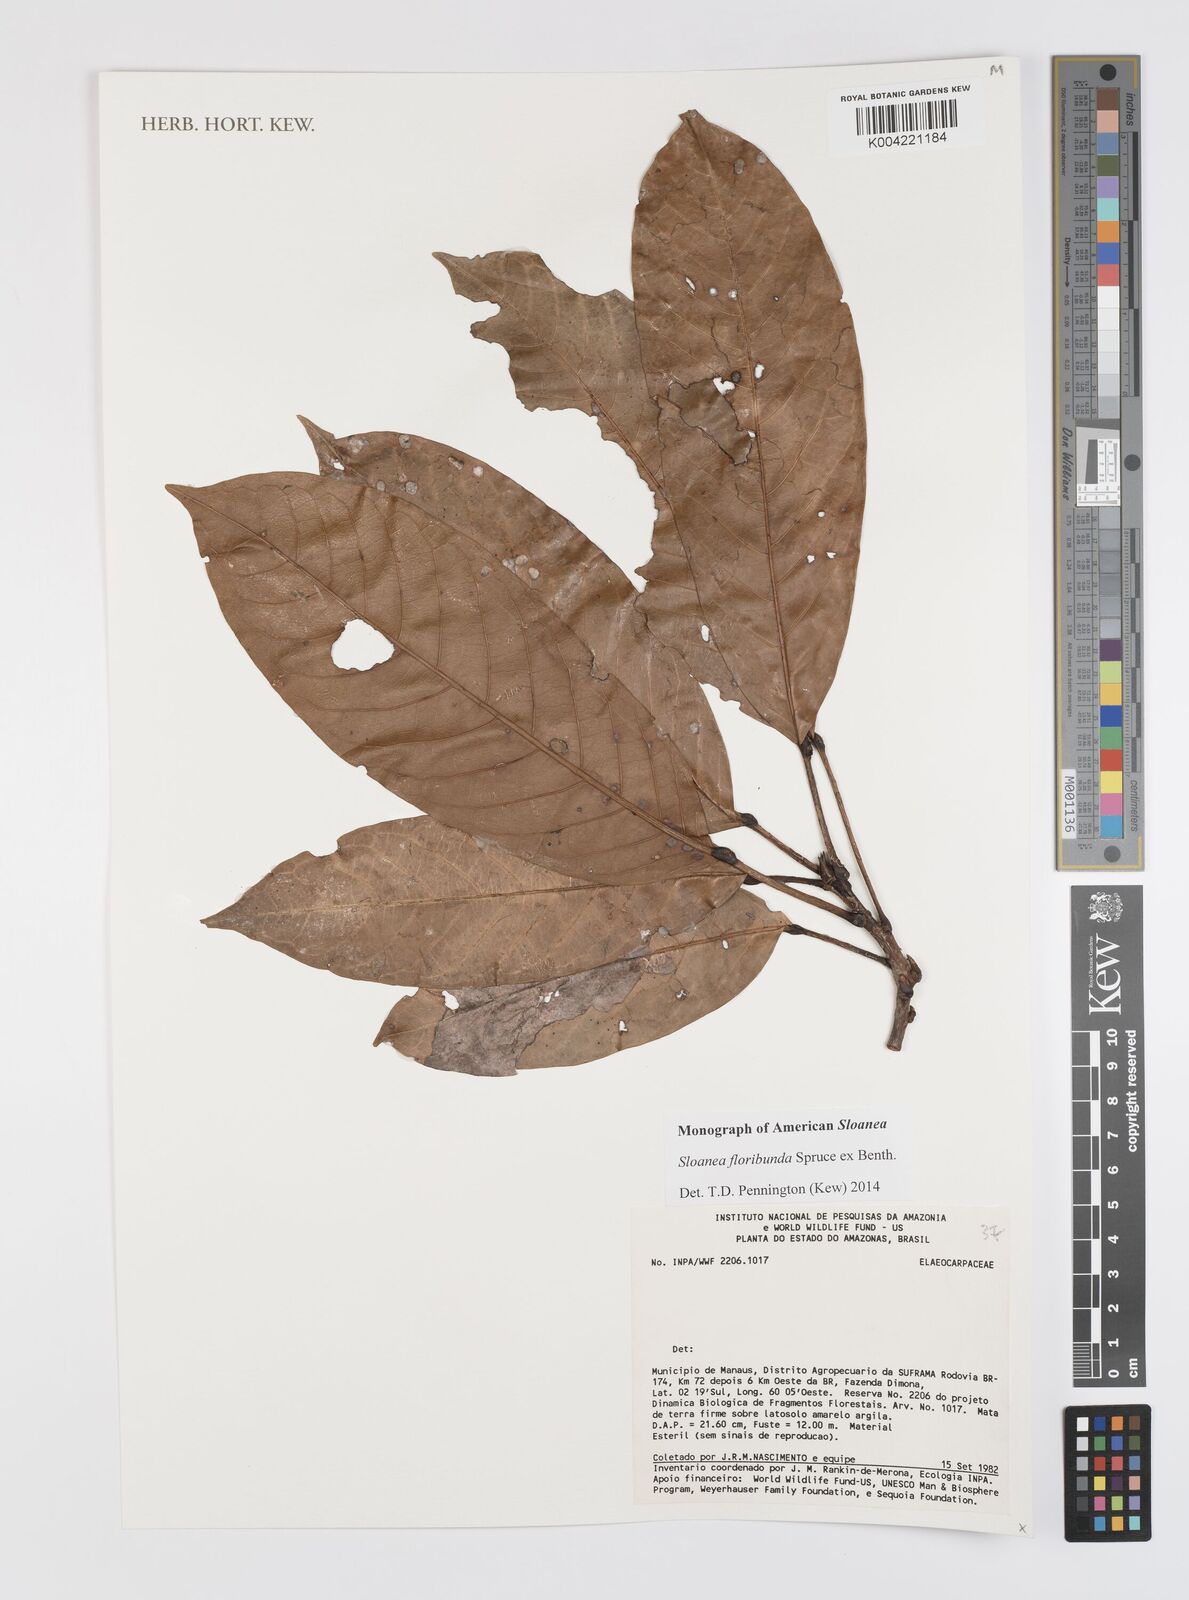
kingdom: Plantae
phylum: Tracheophyta
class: Magnoliopsida
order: Oxalidales
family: Elaeocarpaceae
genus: Sloanea
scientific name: Sloanea floribunda
